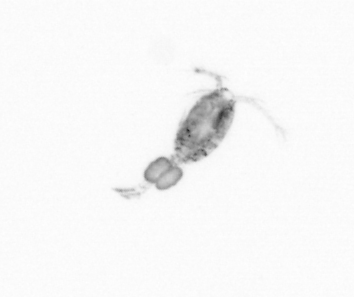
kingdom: Animalia
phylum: Arthropoda
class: Copepoda
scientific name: Copepoda
